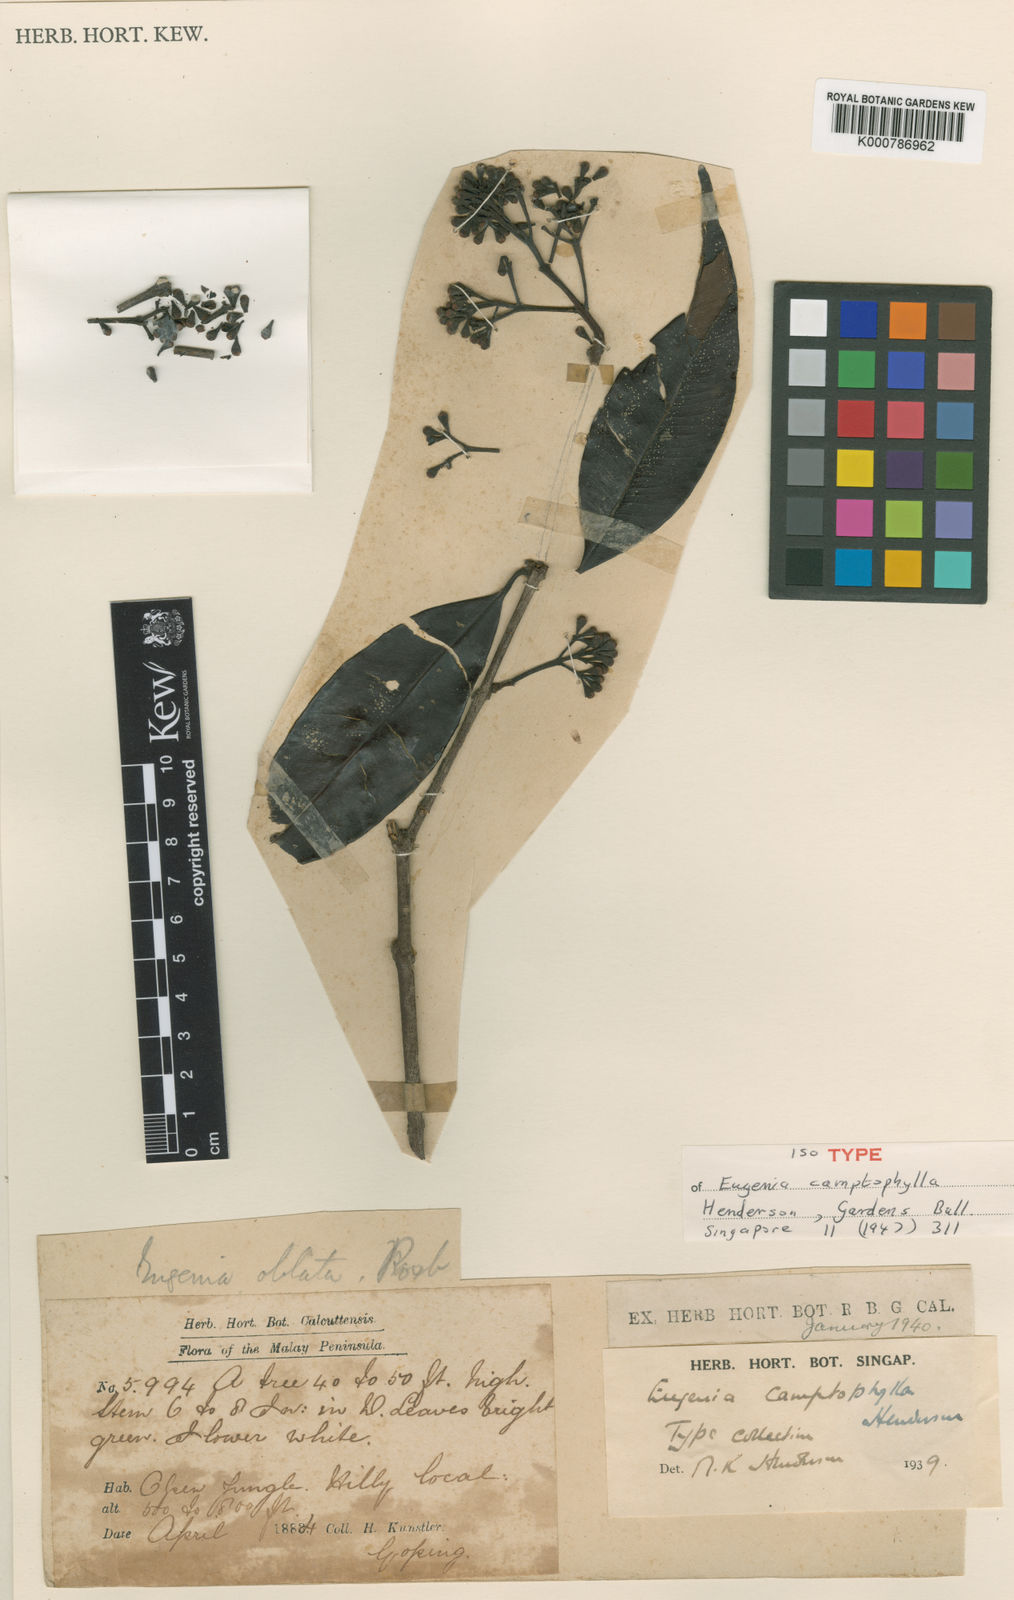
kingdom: Plantae
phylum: Tracheophyta
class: Magnoliopsida
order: Myrtales
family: Myrtaceae
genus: Syzygium
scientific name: Syzygium camptophyllum
